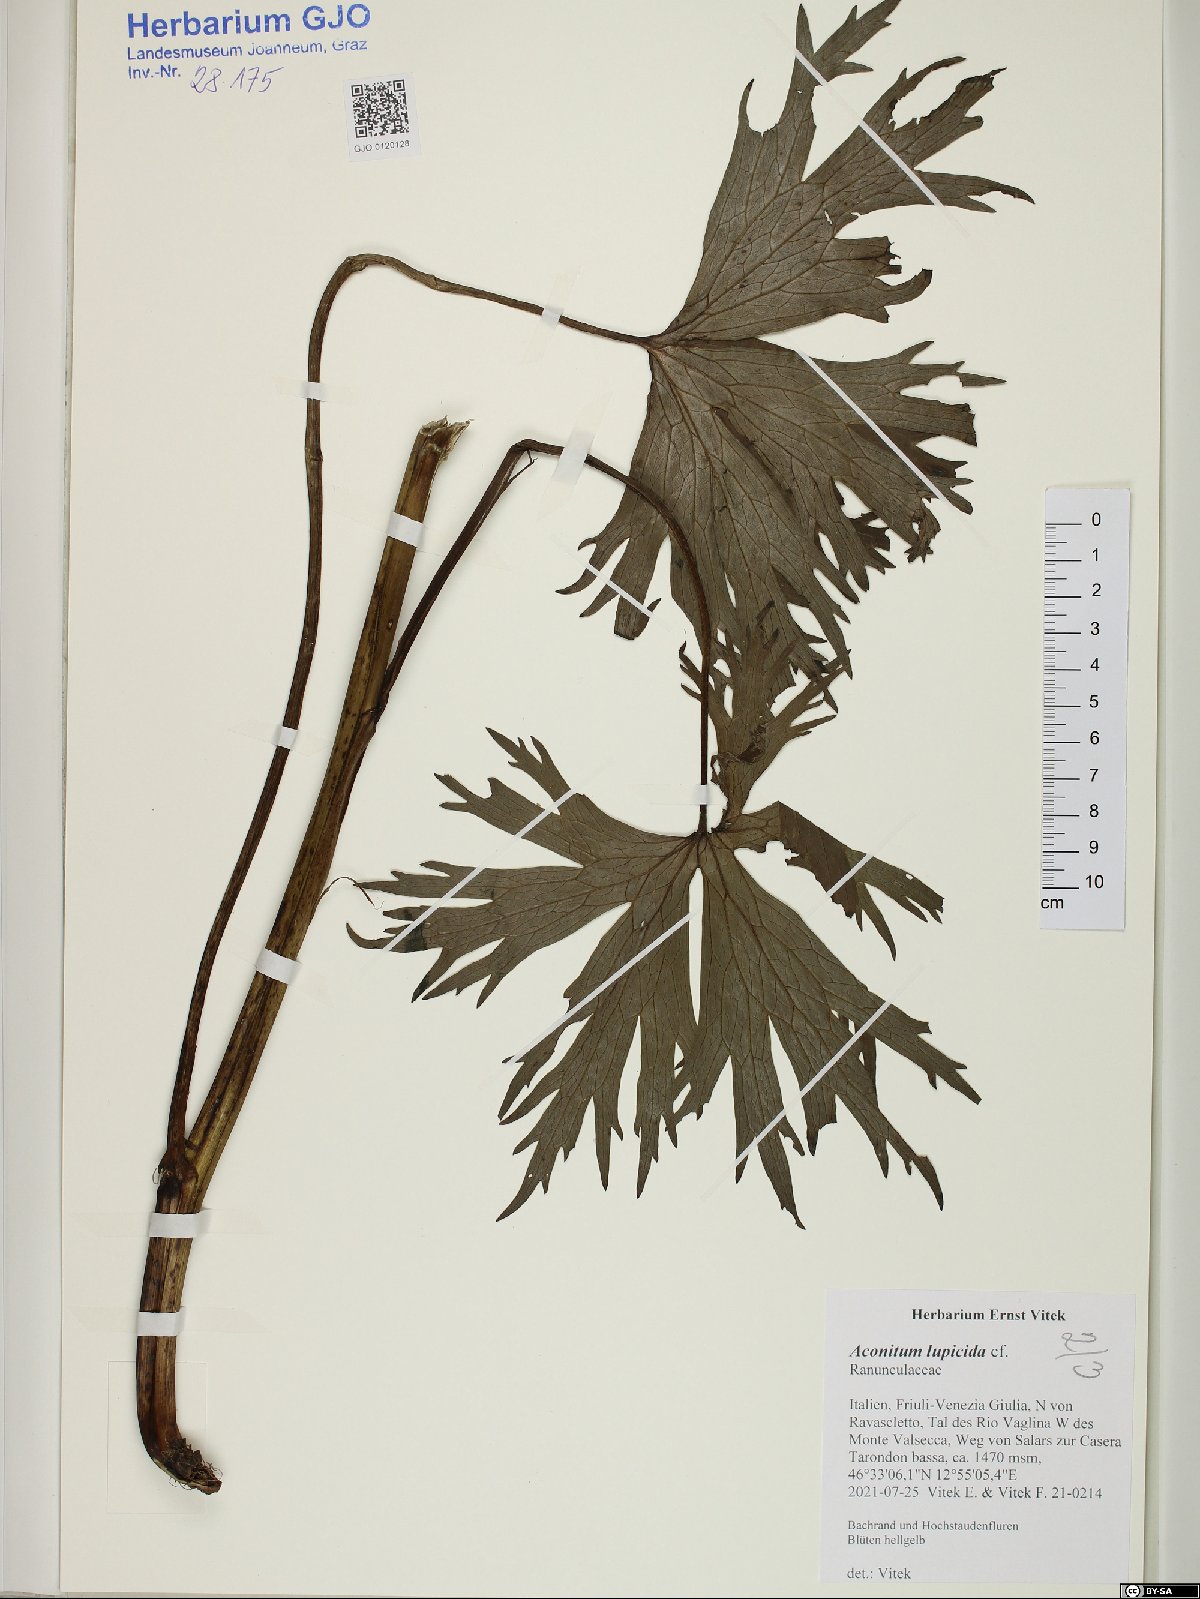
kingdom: Plantae
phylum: Tracheophyta
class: Magnoliopsida
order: Ranunculales
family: Ranunculaceae
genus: Aconitum
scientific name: Aconitum lycoctonum
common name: Wolf's-bane
